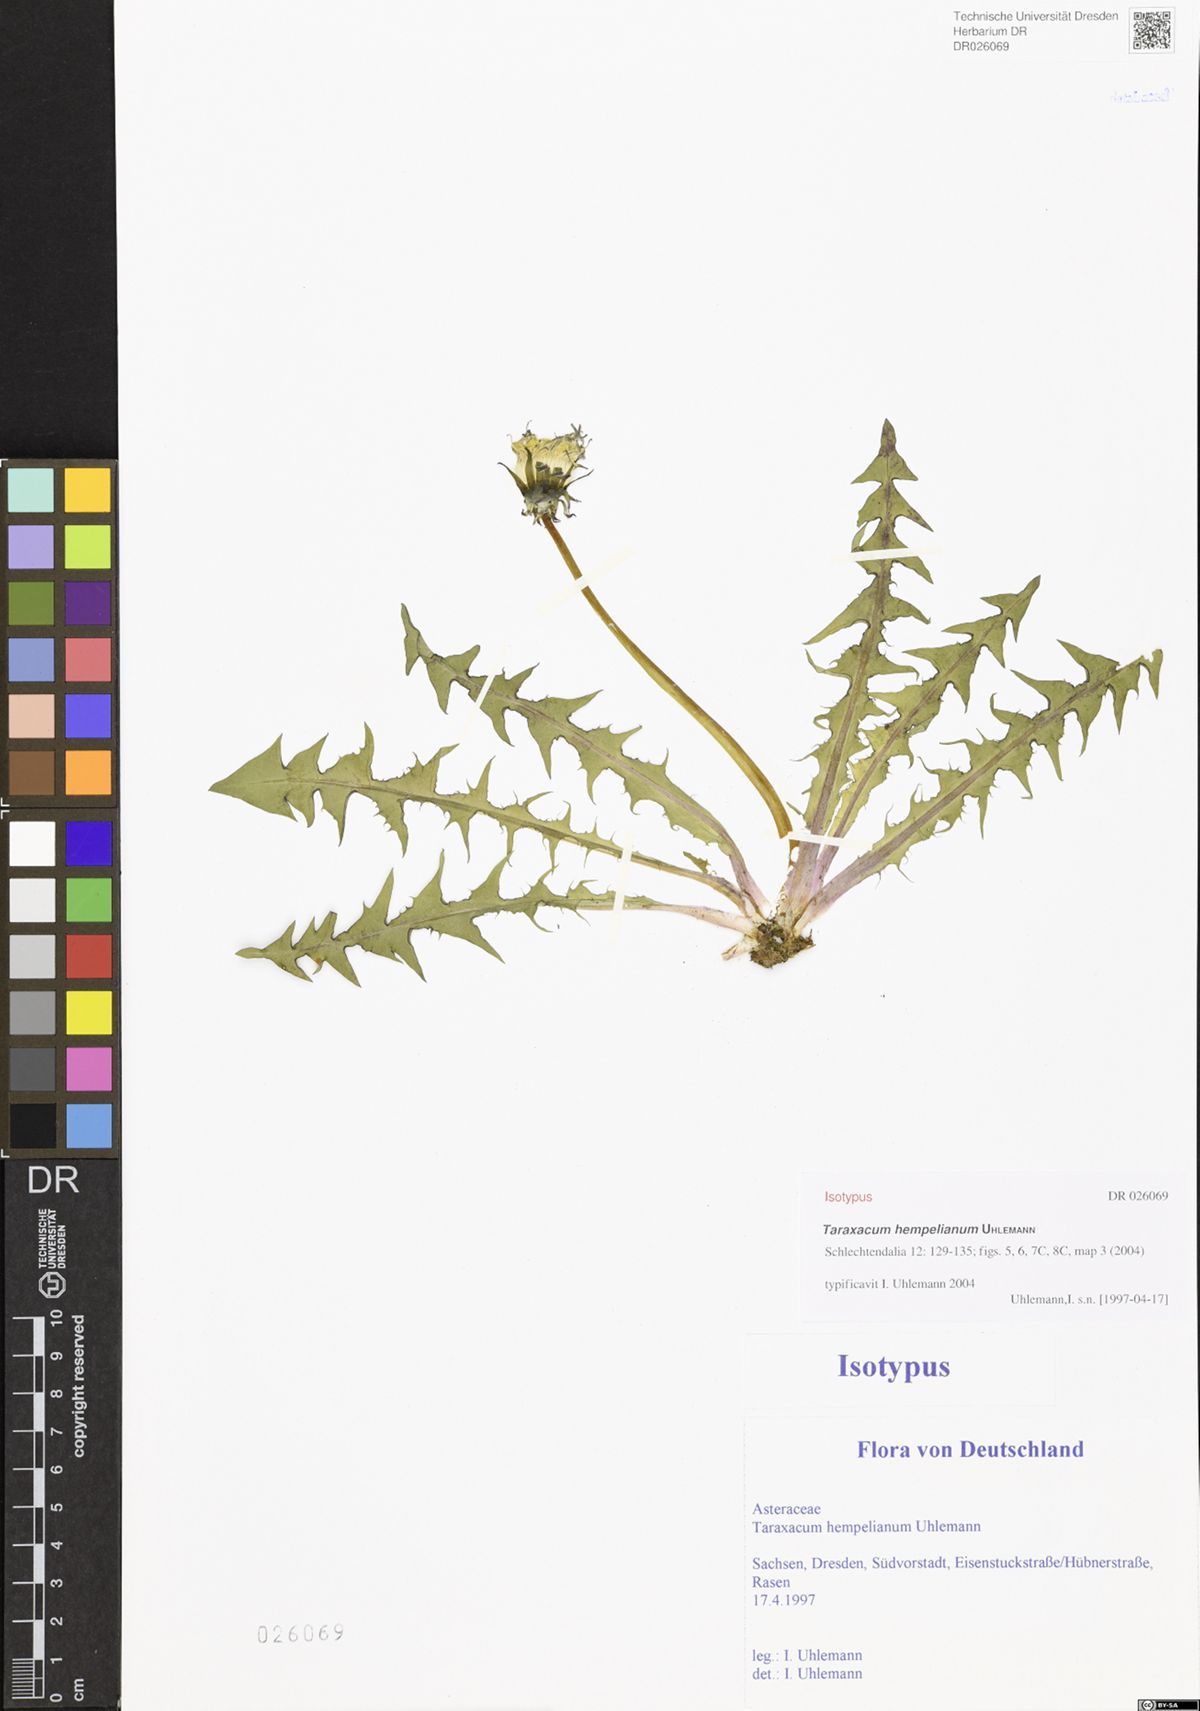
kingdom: Plantae
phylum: Tracheophyta
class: Magnoliopsida
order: Asterales
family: Asteraceae
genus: Taraxacum
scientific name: Taraxacum hempelianum
